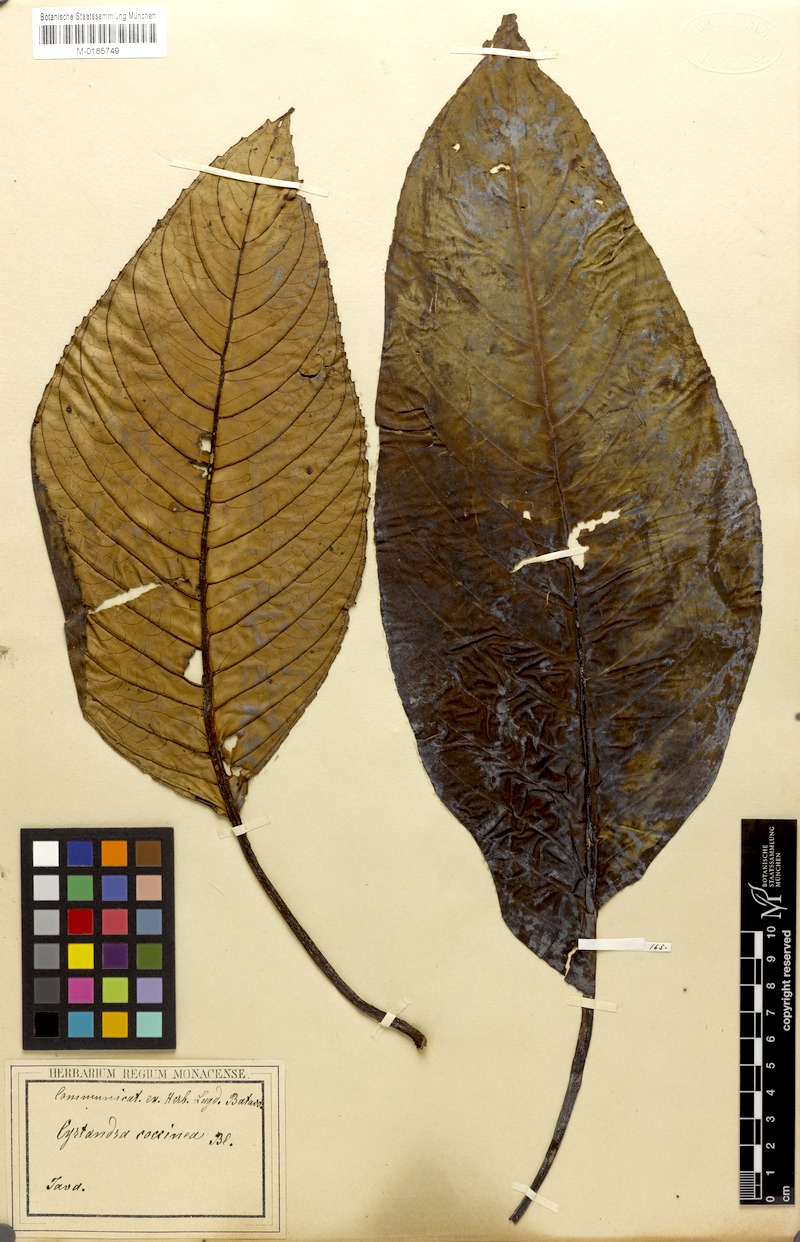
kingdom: Plantae
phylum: Tracheophyta
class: Magnoliopsida
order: Lamiales
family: Gesneriaceae
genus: Cyrtandra
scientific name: Cyrtandra coccinea
